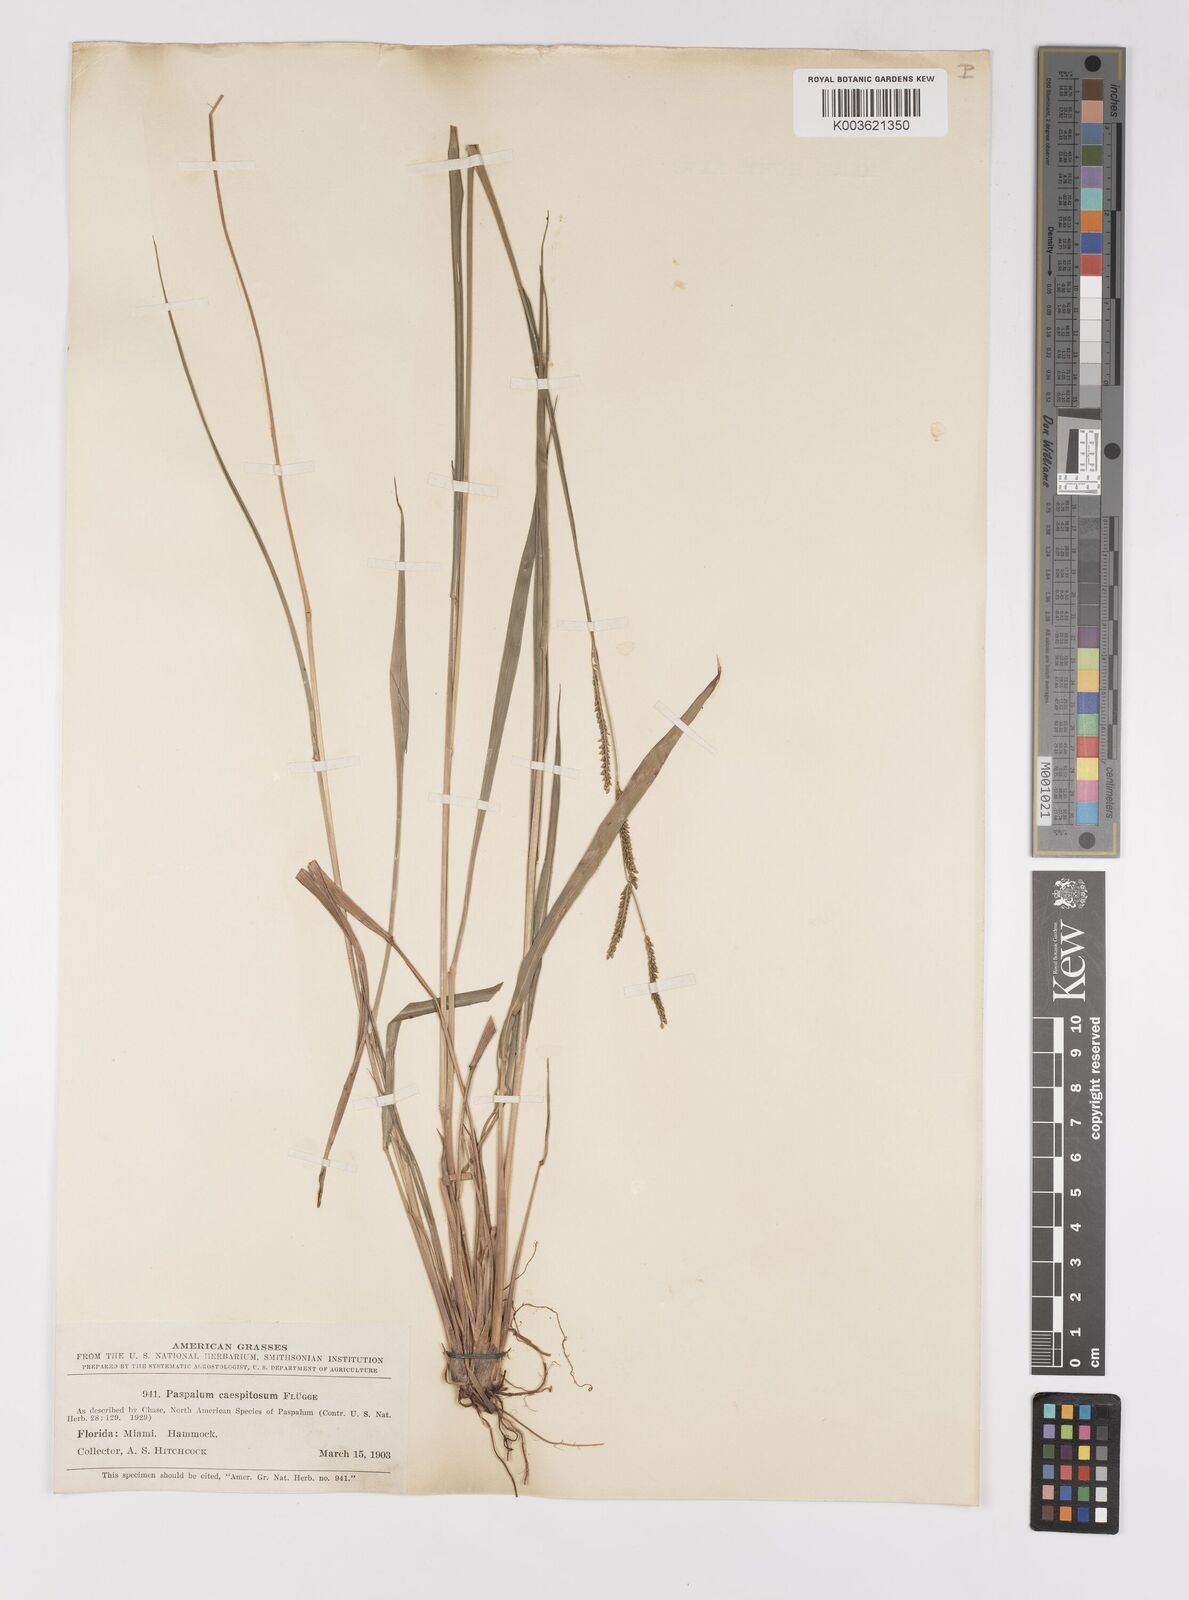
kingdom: Plantae
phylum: Tracheophyta
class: Liliopsida
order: Poales
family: Poaceae
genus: Paspalum
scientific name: Paspalum caespitosum
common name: Blue crowngrass
